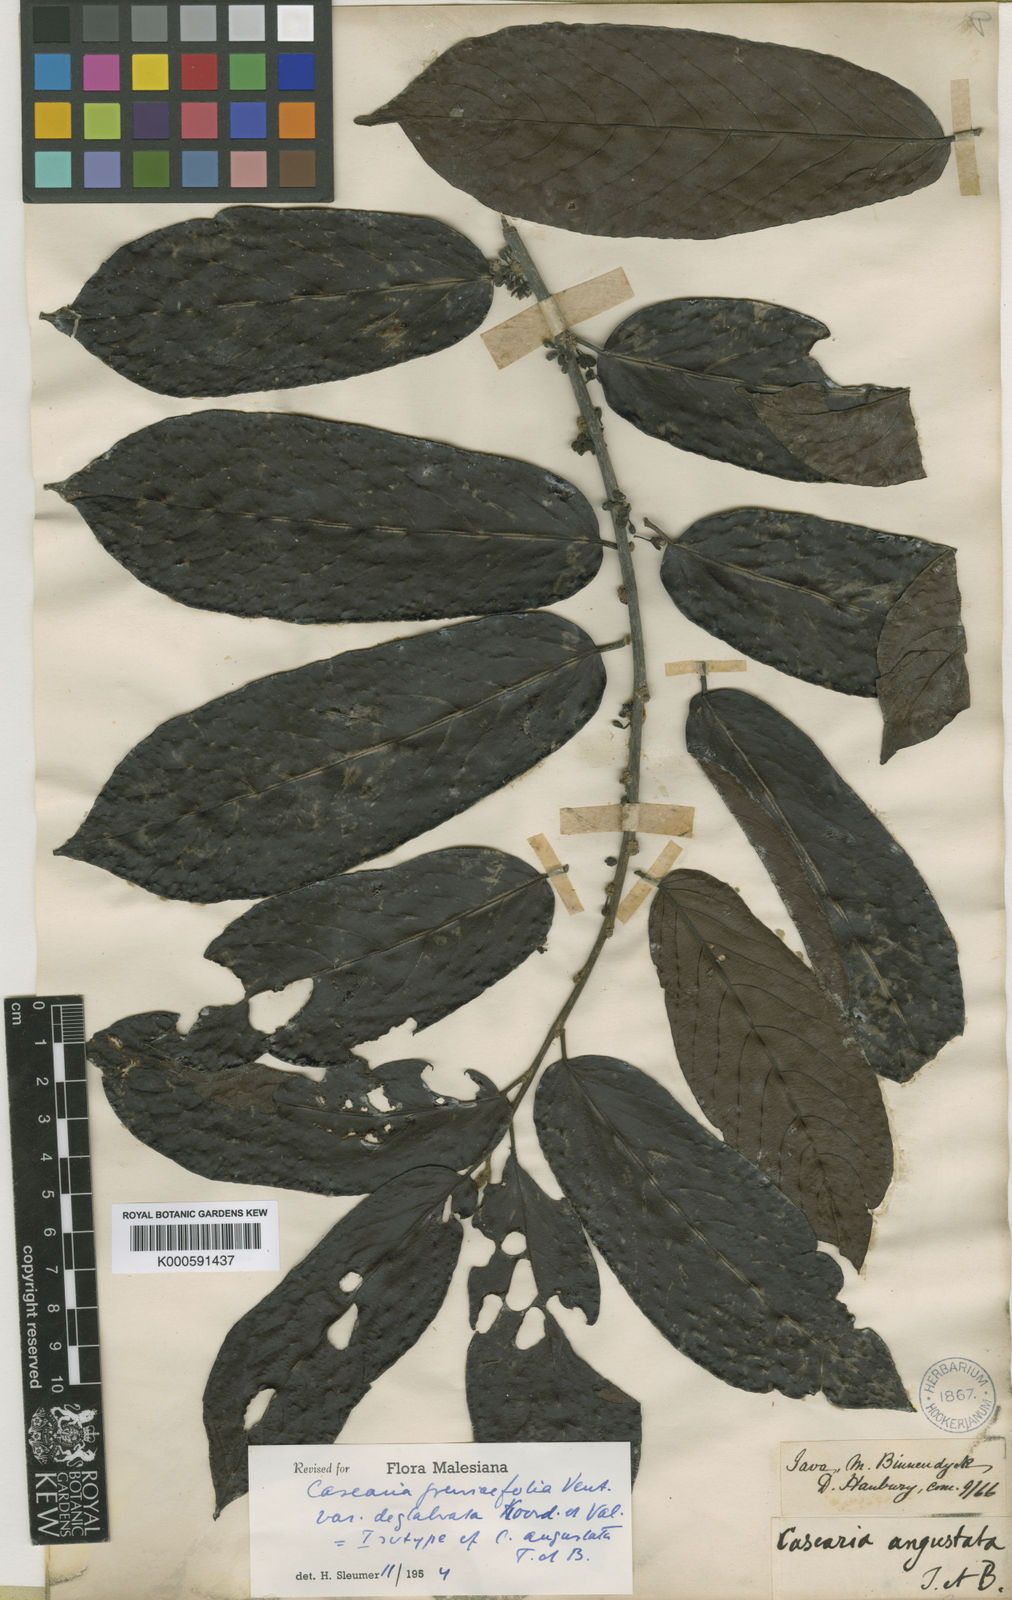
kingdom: Plantae
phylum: Tracheophyta
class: Magnoliopsida
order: Malpighiales
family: Salicaceae
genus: Casearia
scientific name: Casearia grewiifolia
